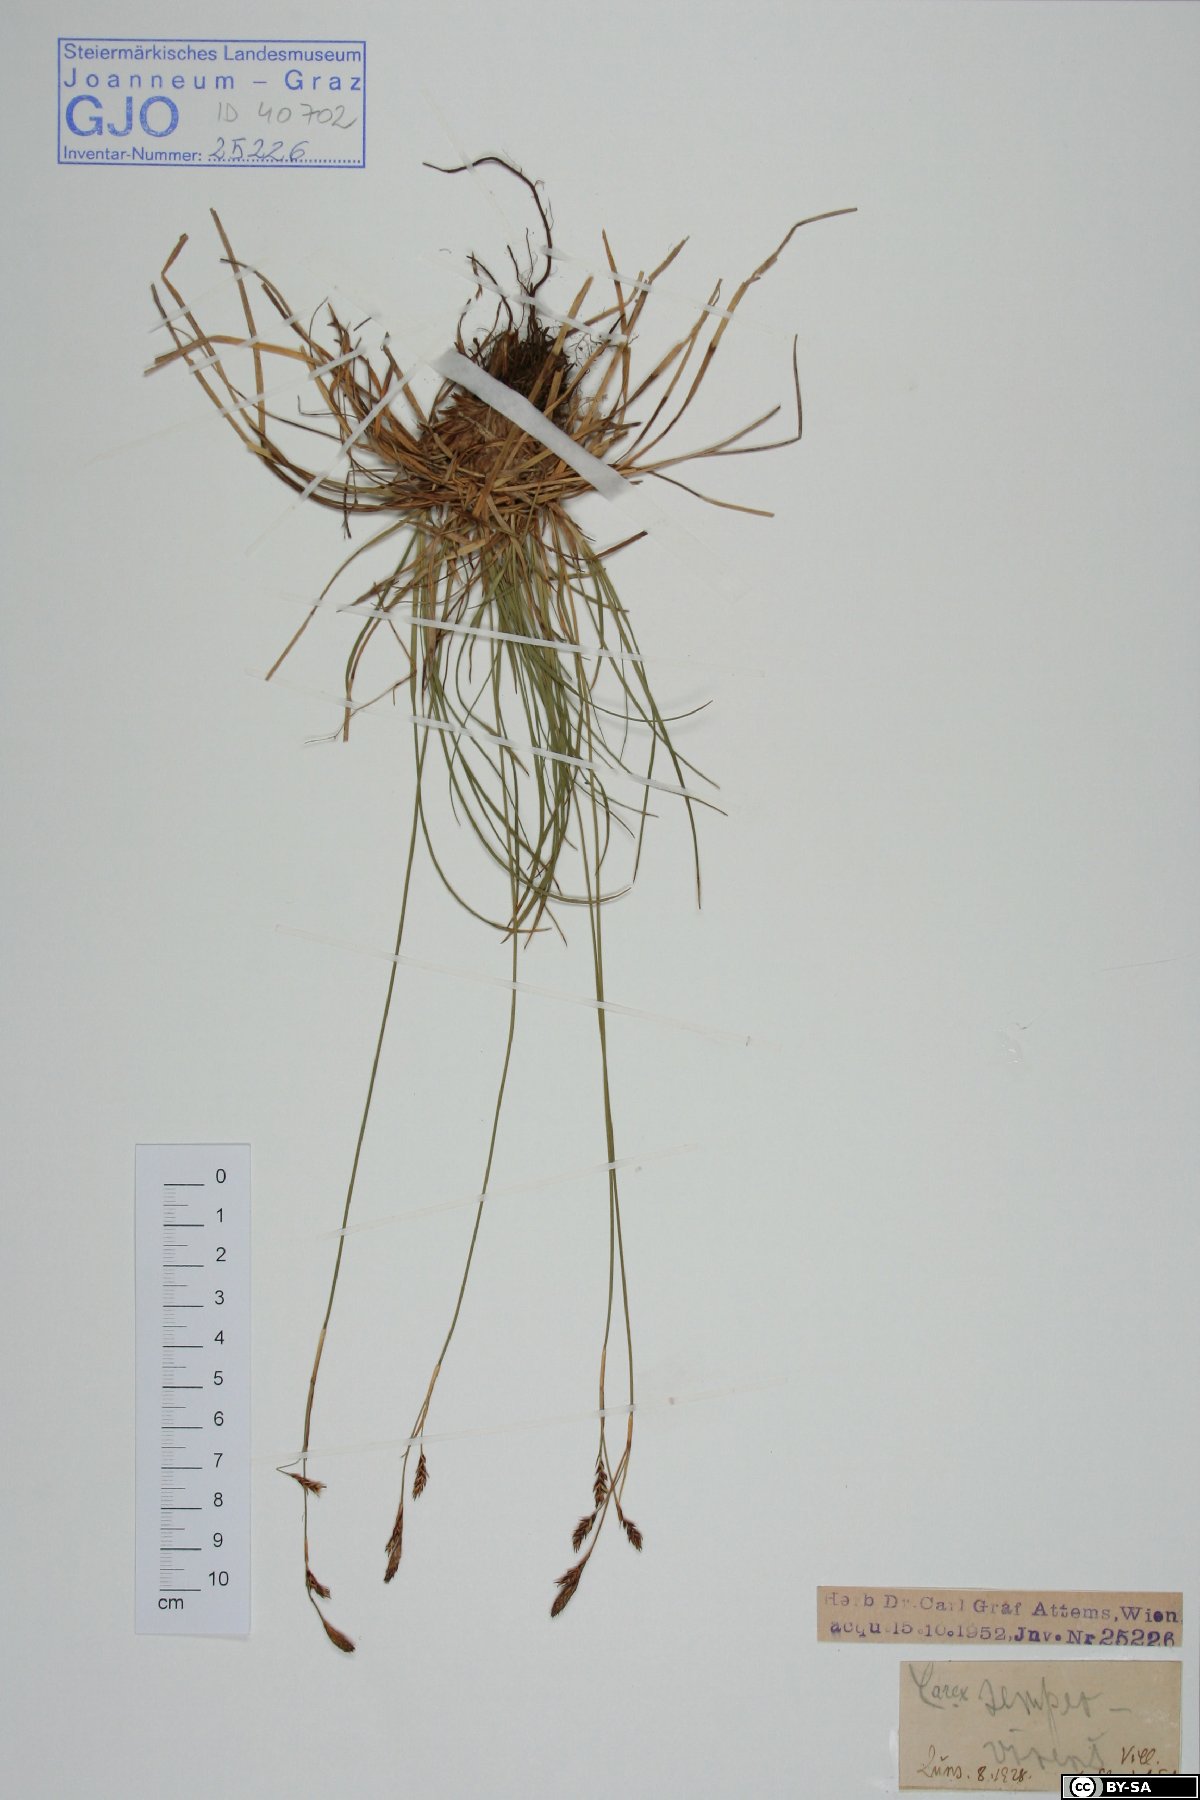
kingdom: Plantae
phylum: Tracheophyta
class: Liliopsida
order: Poales
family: Cyperaceae
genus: Carex
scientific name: Carex sempervirens
